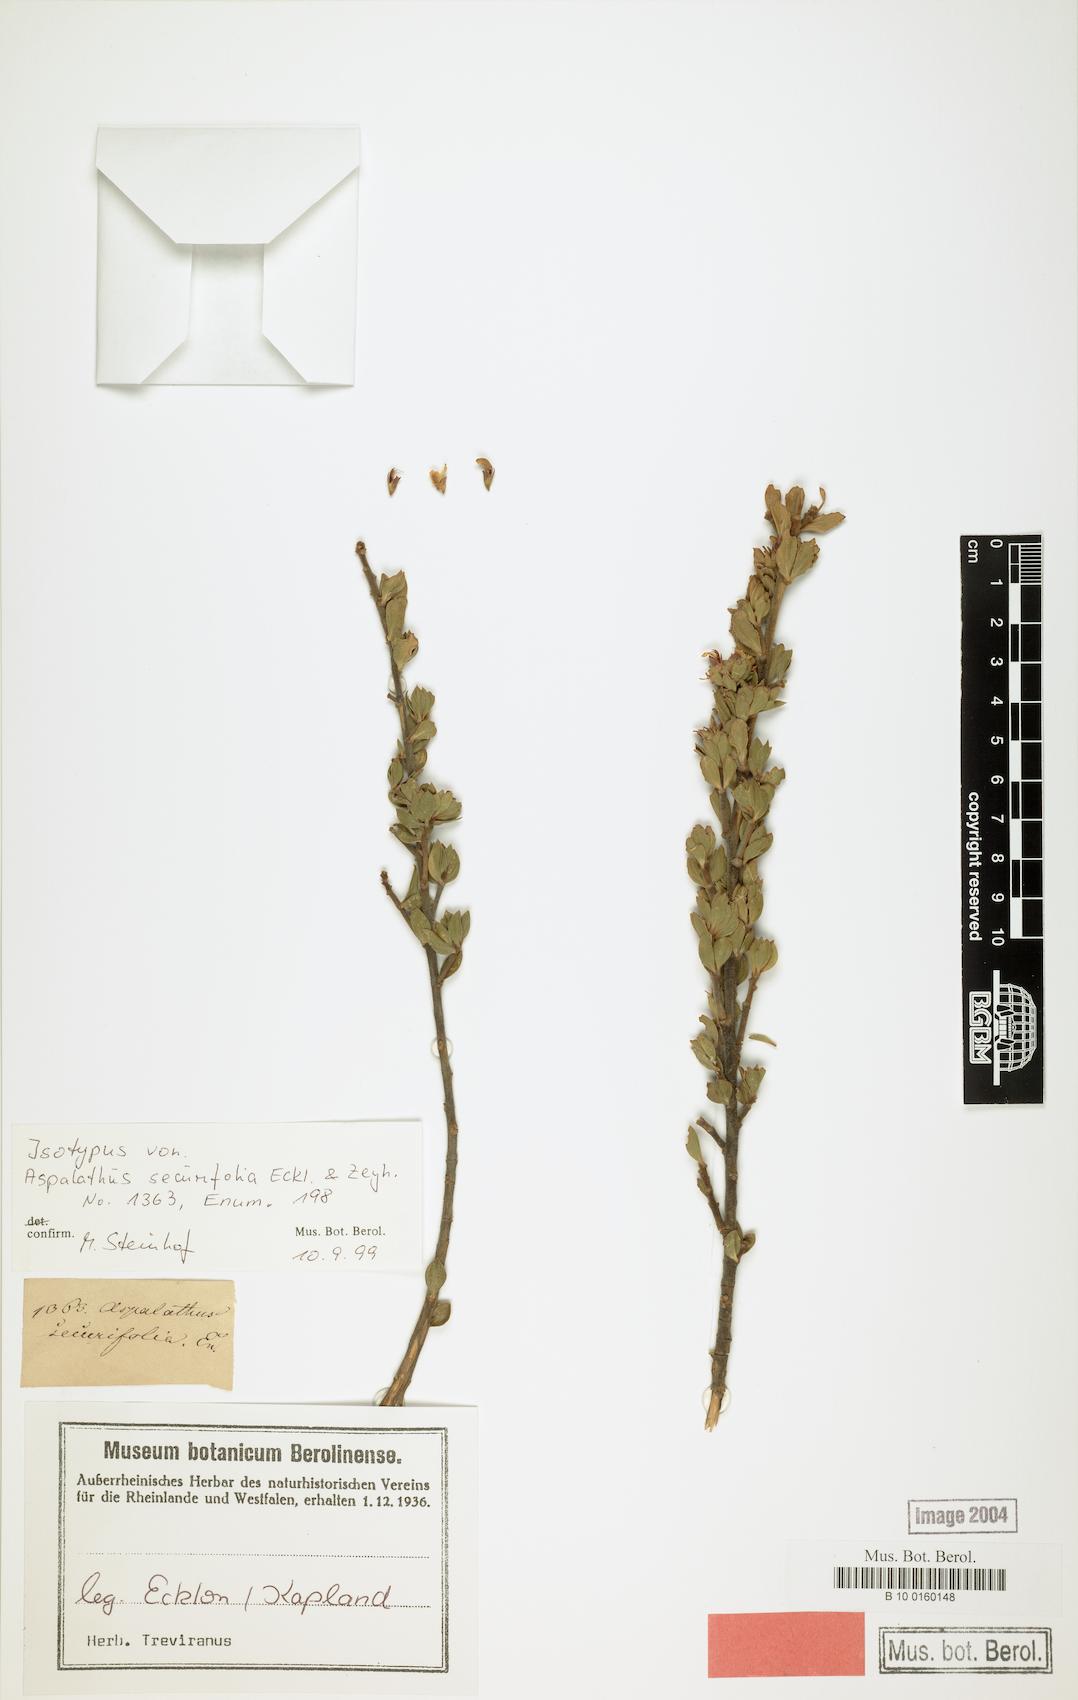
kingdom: Plantae
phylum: Tracheophyta
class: Magnoliopsida
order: Fabales
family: Fabaceae
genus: Aspalathus
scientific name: Aspalathus securifolia
